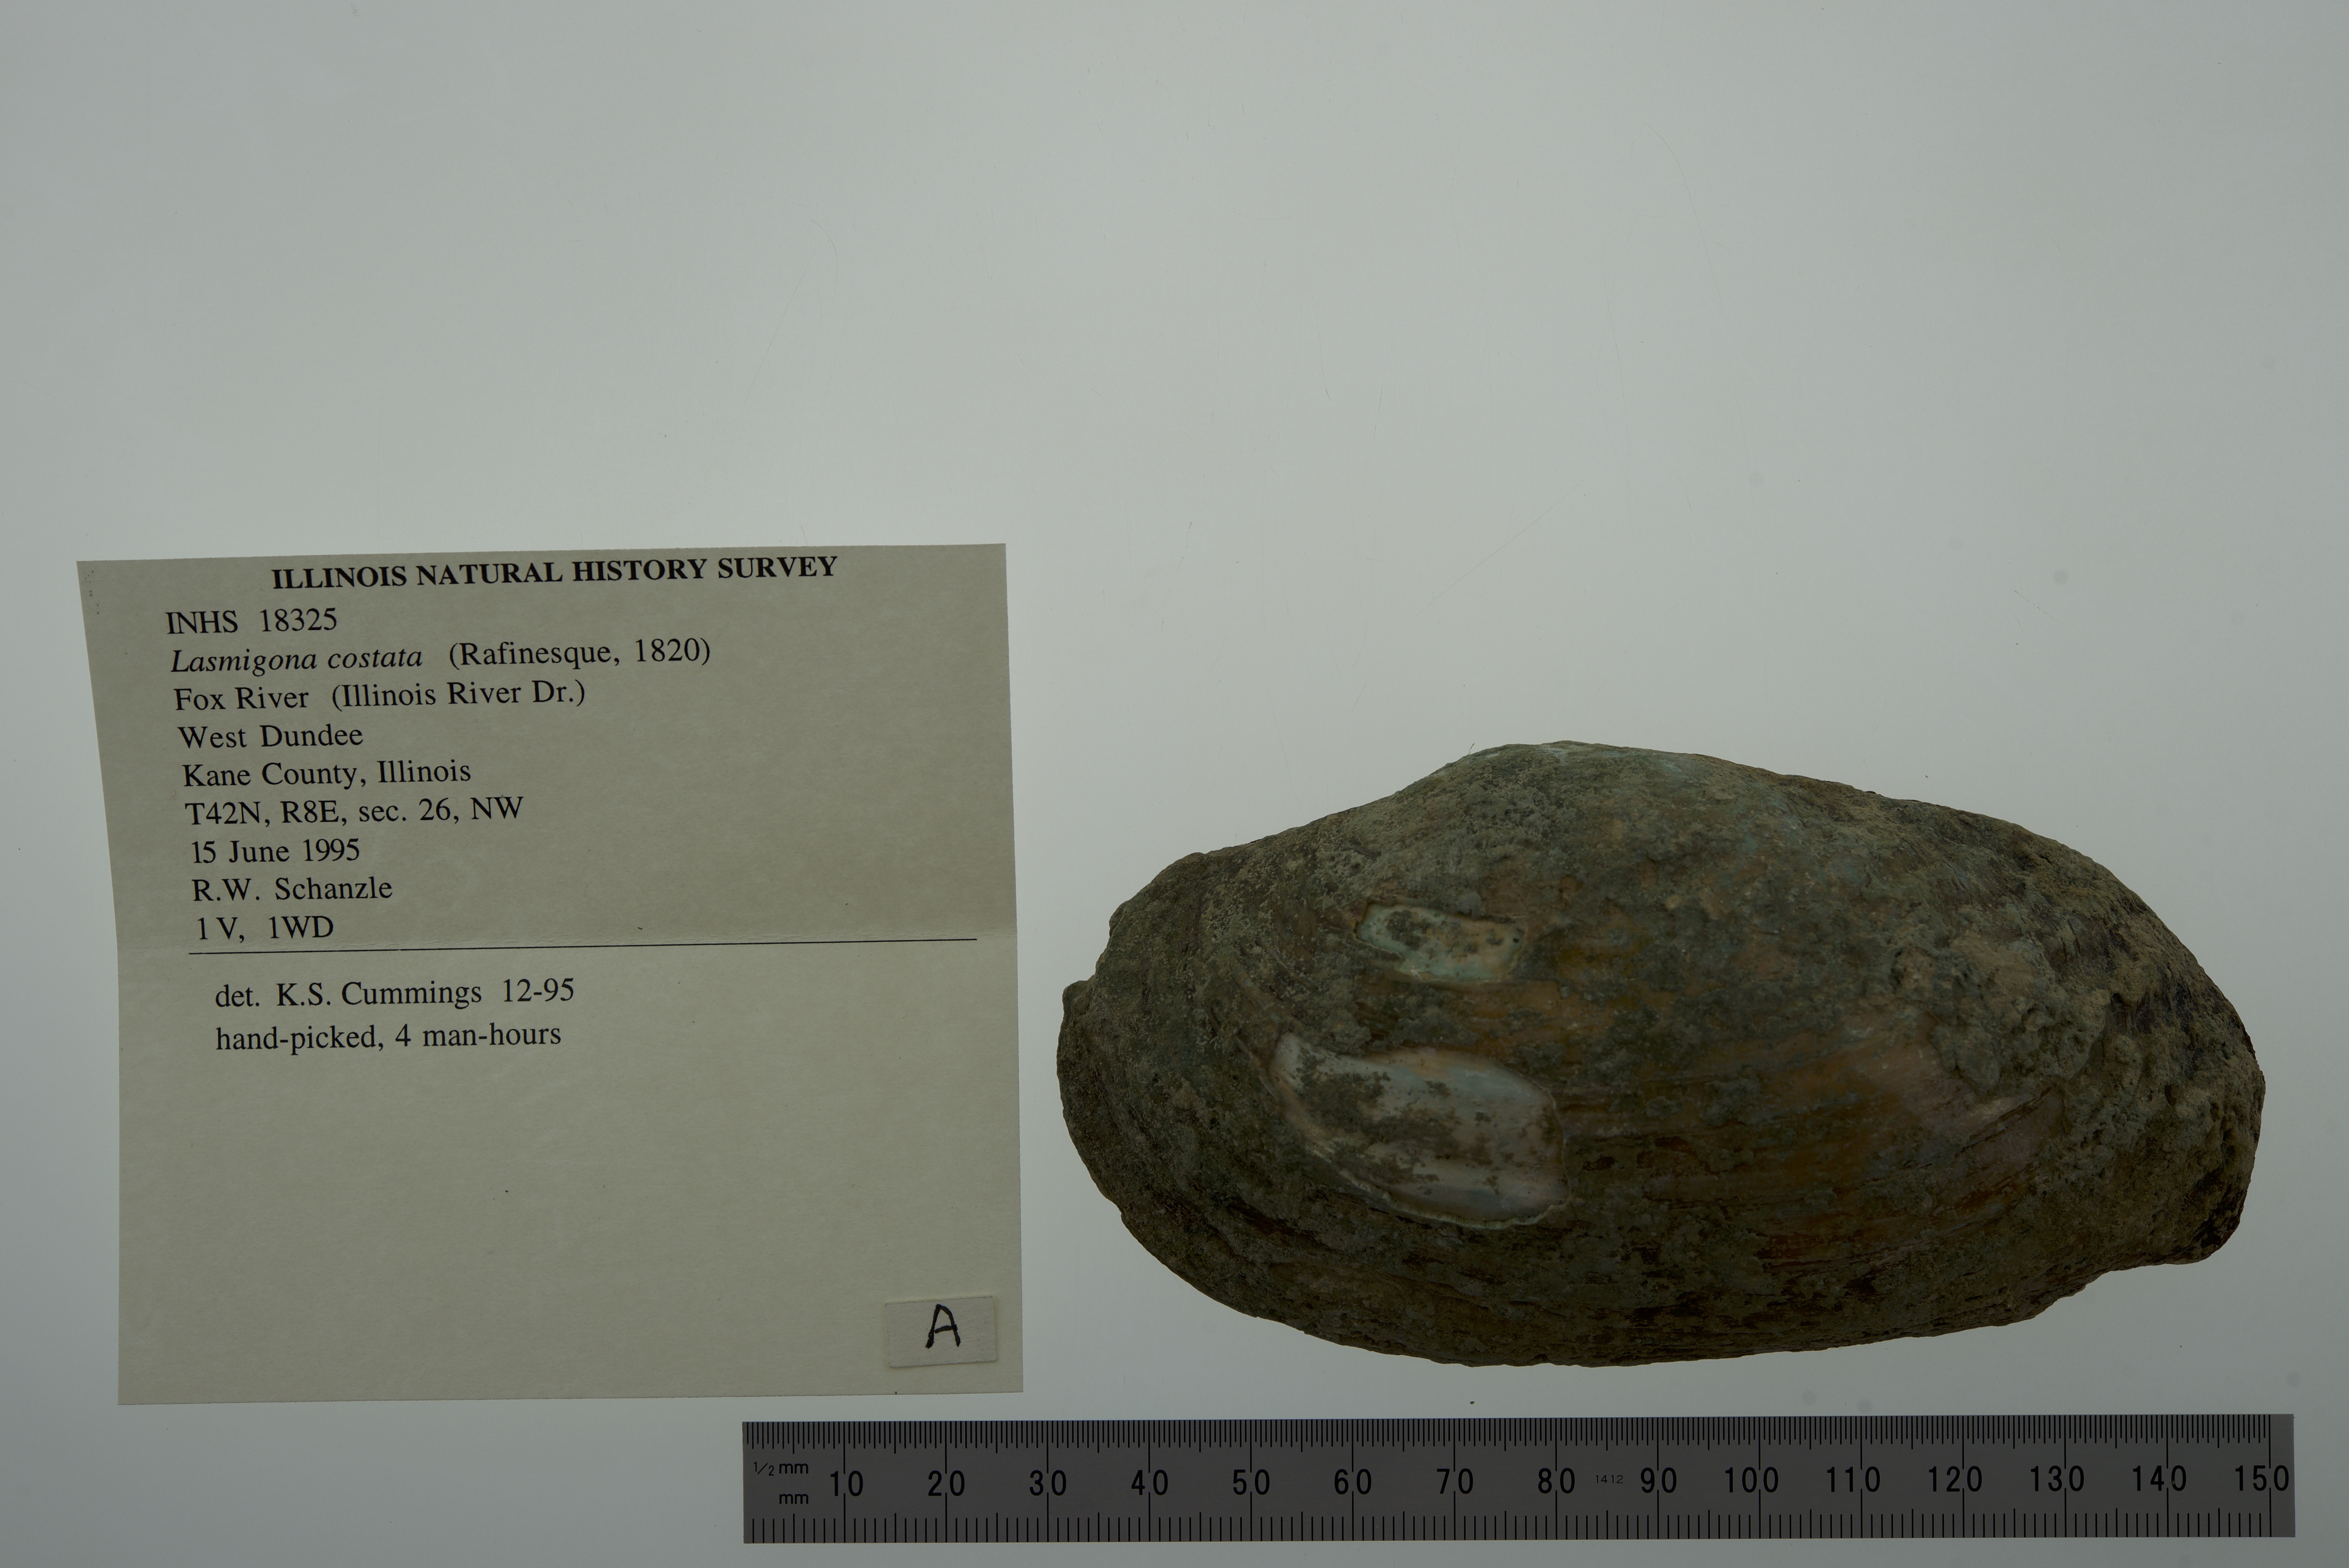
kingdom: Animalia
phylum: Mollusca
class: Bivalvia
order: Unionida
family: Unionidae
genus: Lasmigona
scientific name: Lasmigona costata
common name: Flutedshell
